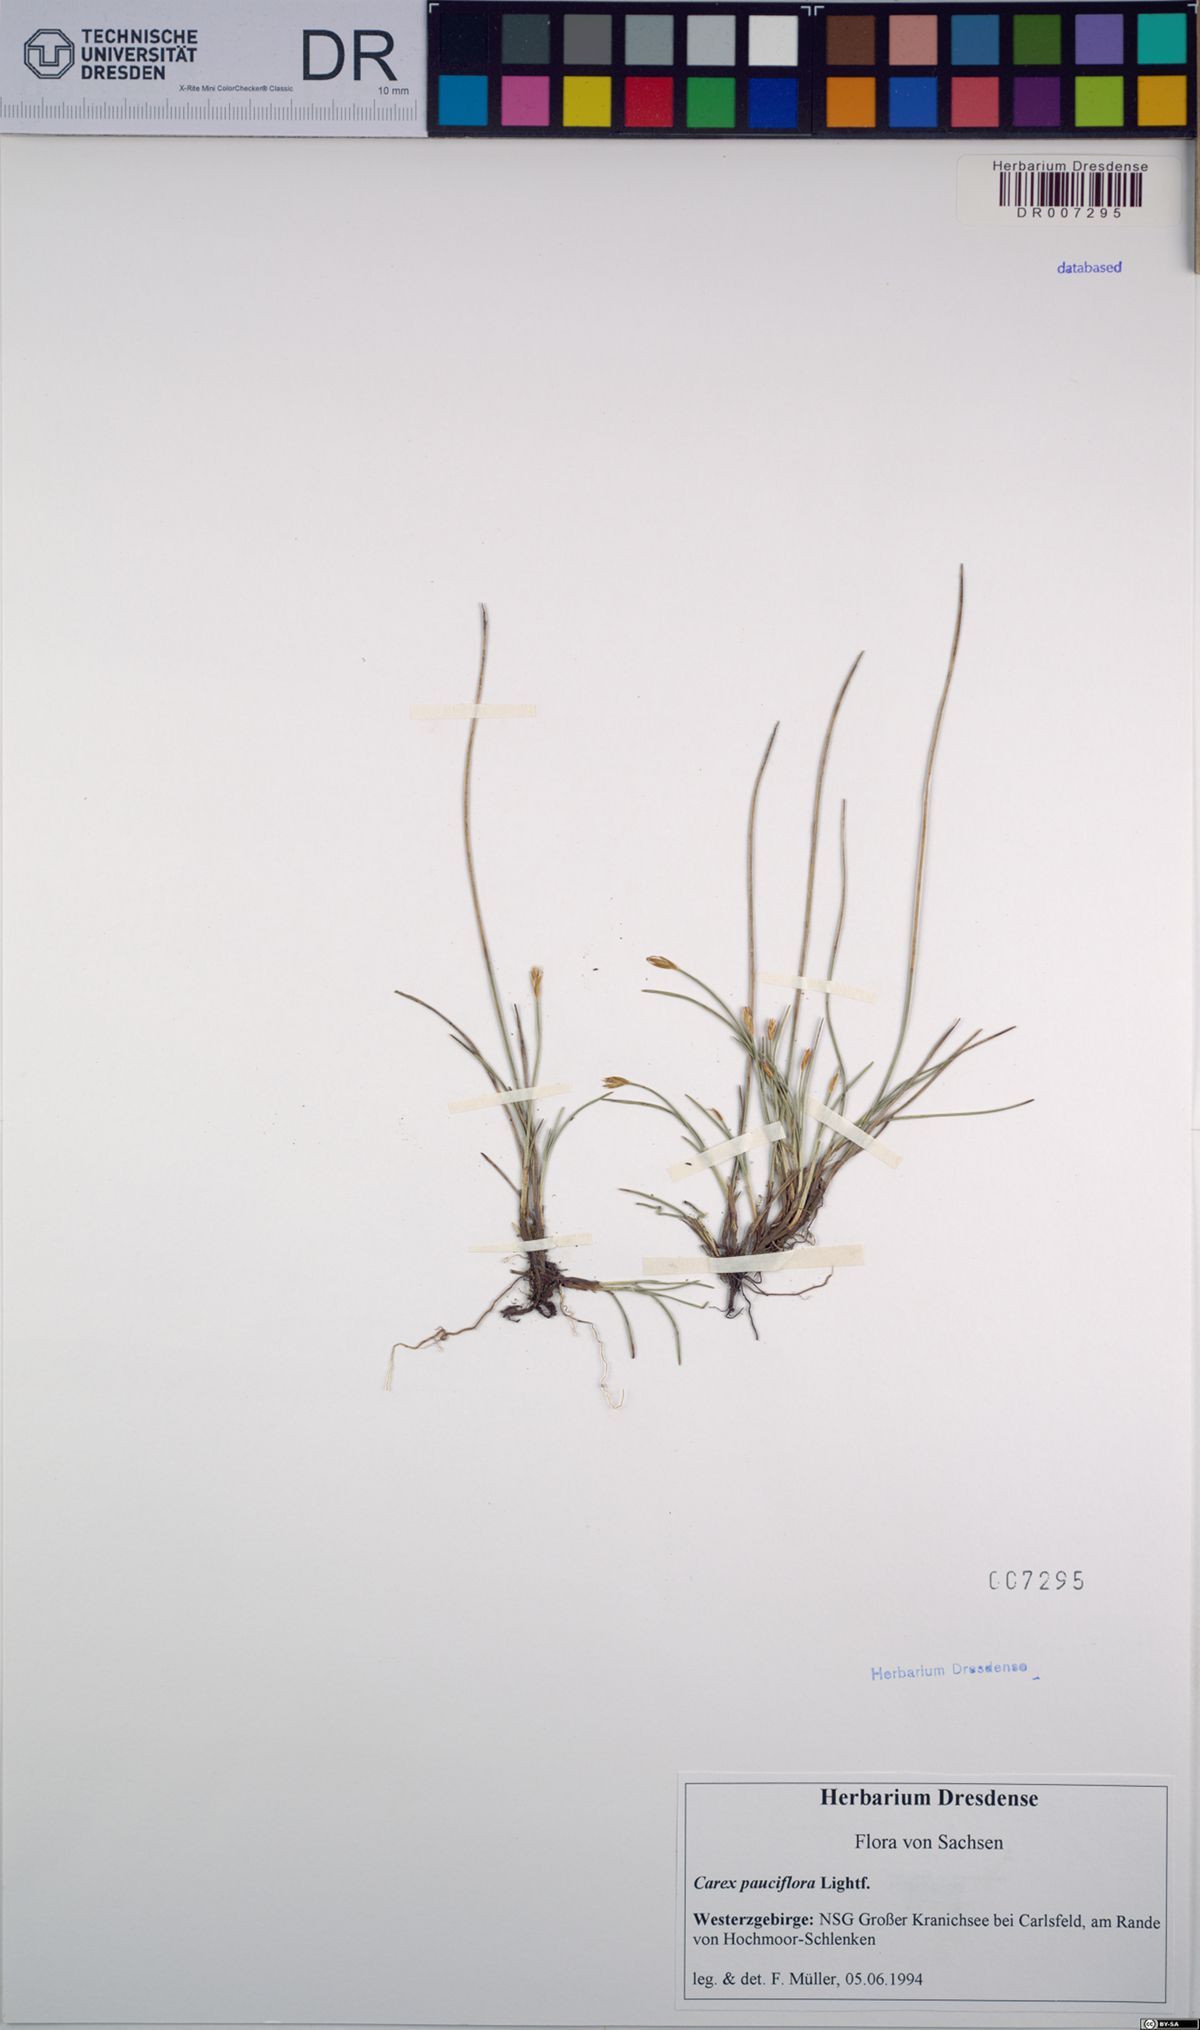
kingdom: Plantae
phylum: Tracheophyta
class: Liliopsida
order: Poales
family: Cyperaceae
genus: Carex
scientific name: Carex pauciflora
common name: Few-flowered sedge
